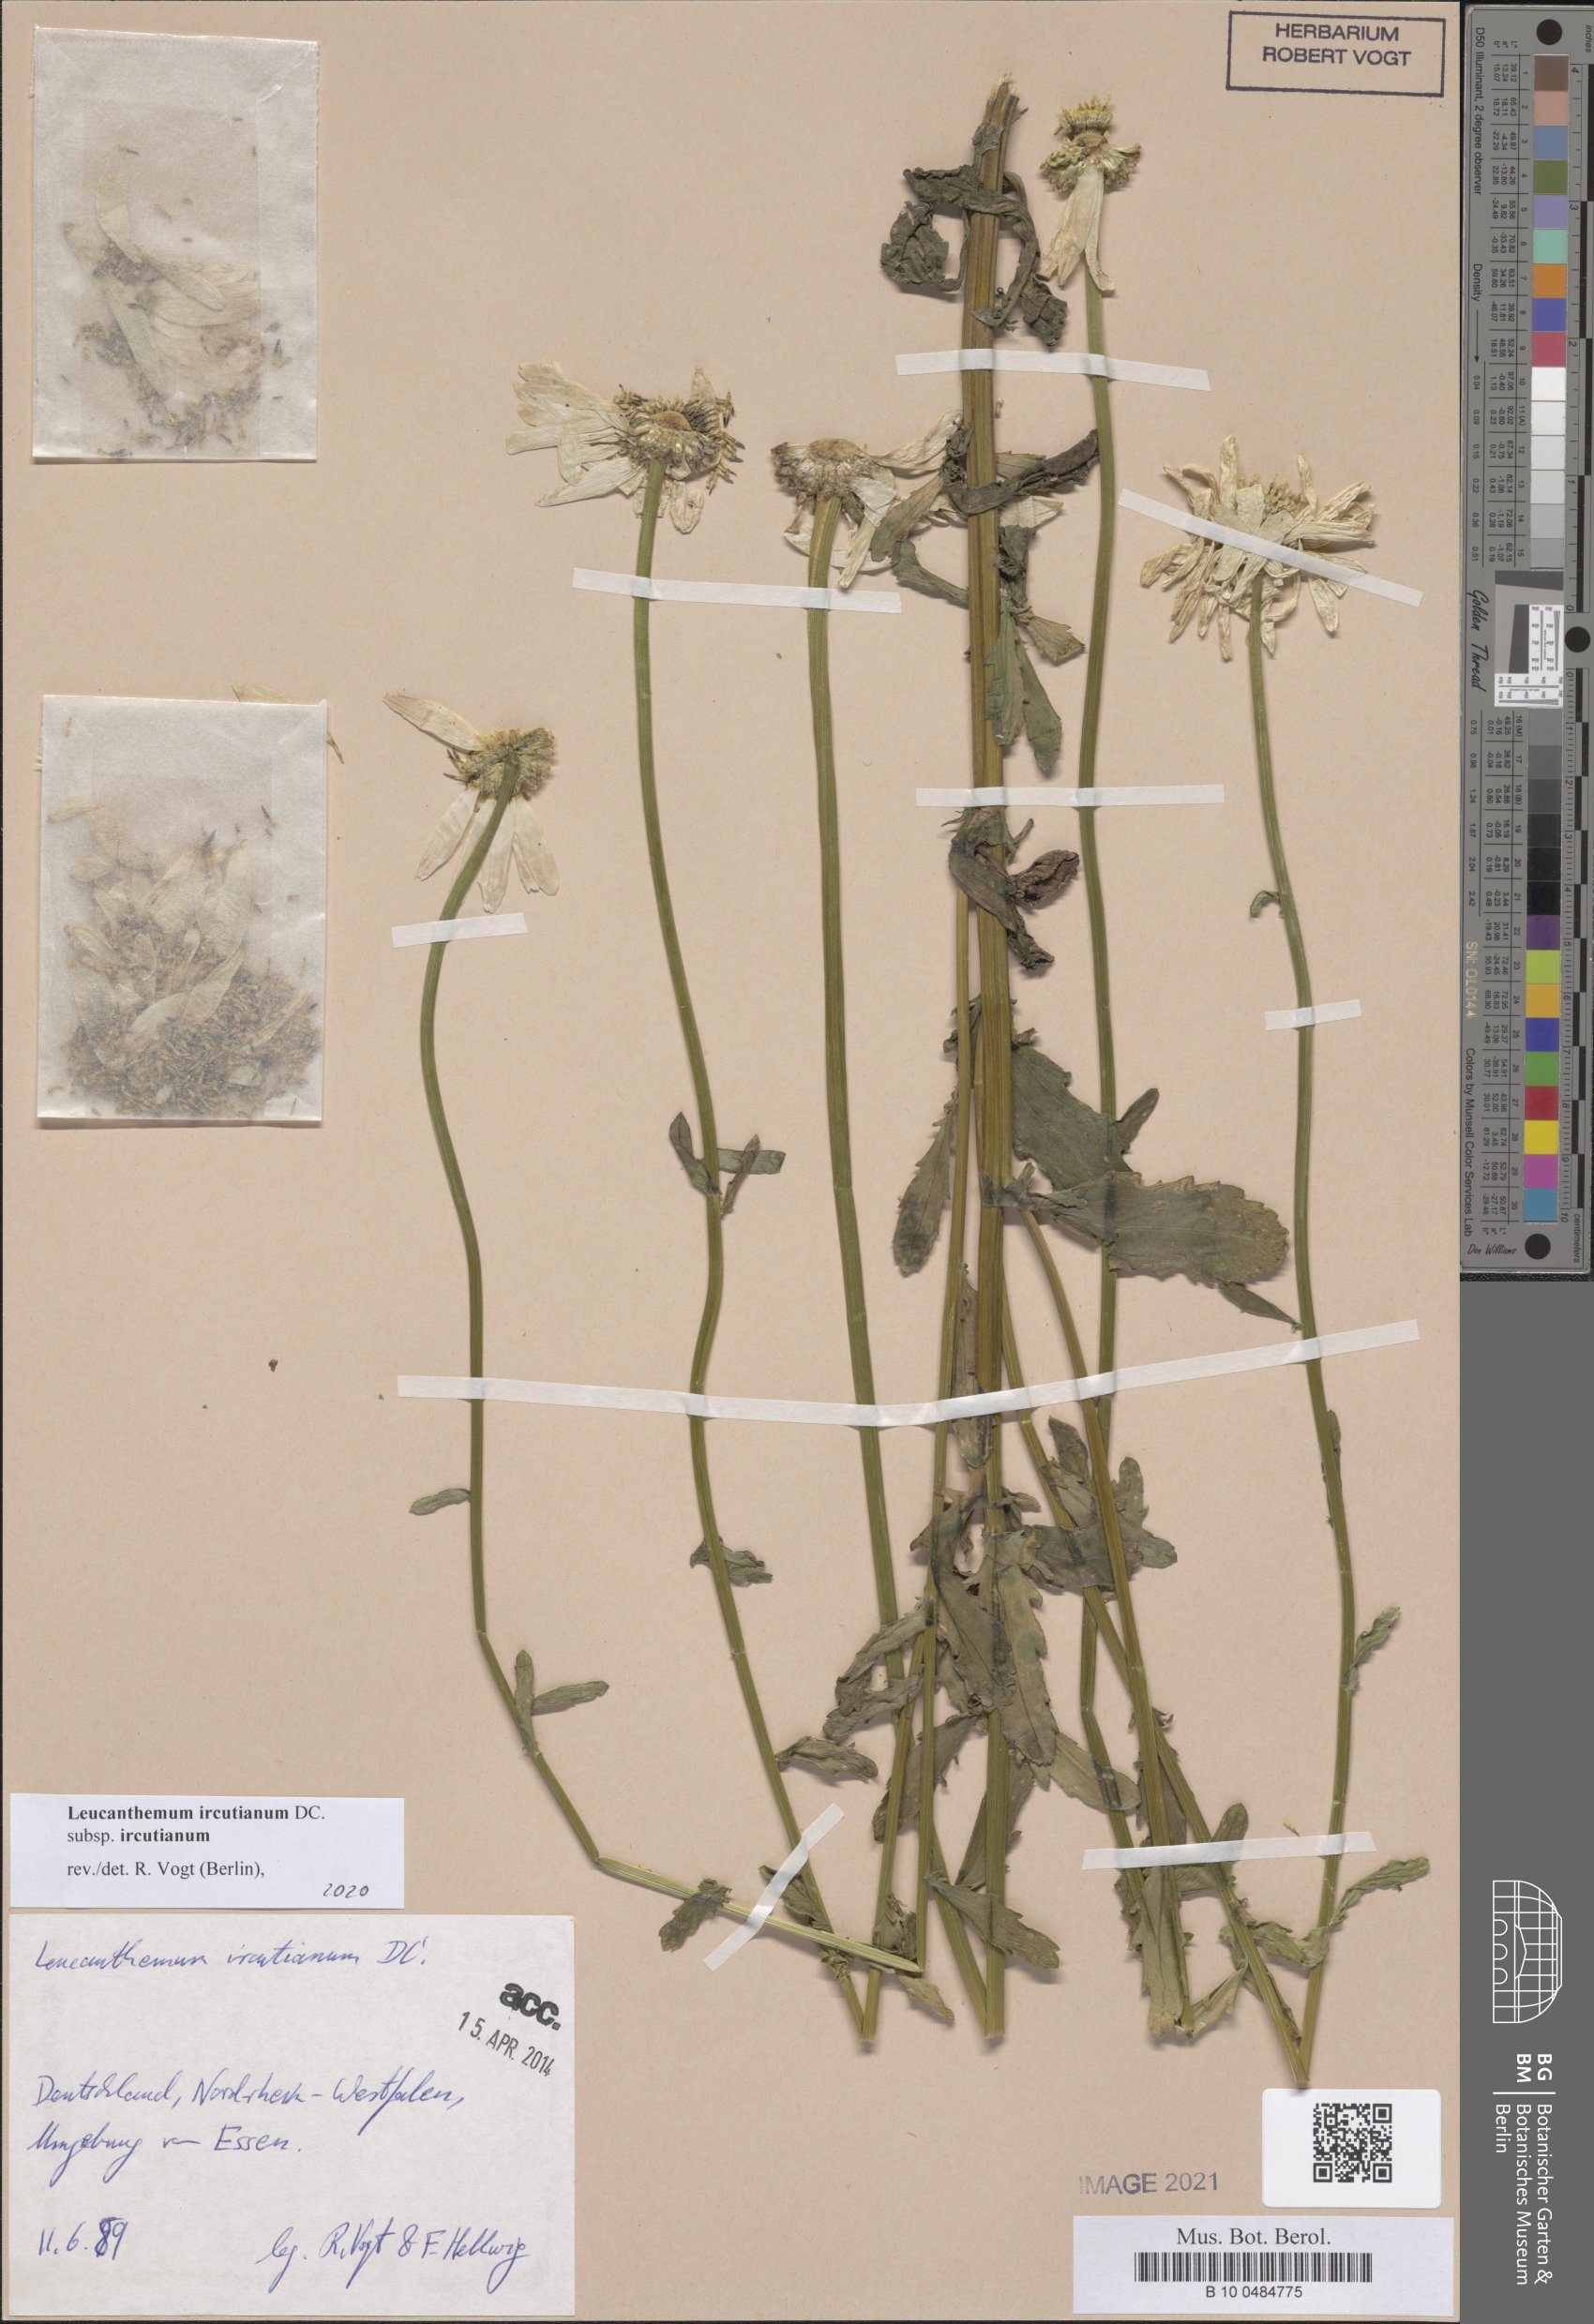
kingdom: Plantae
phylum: Tracheophyta
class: Magnoliopsida
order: Asterales
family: Asteraceae
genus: Leucanthemum
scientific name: Leucanthemum ircutianum
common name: Daisy
